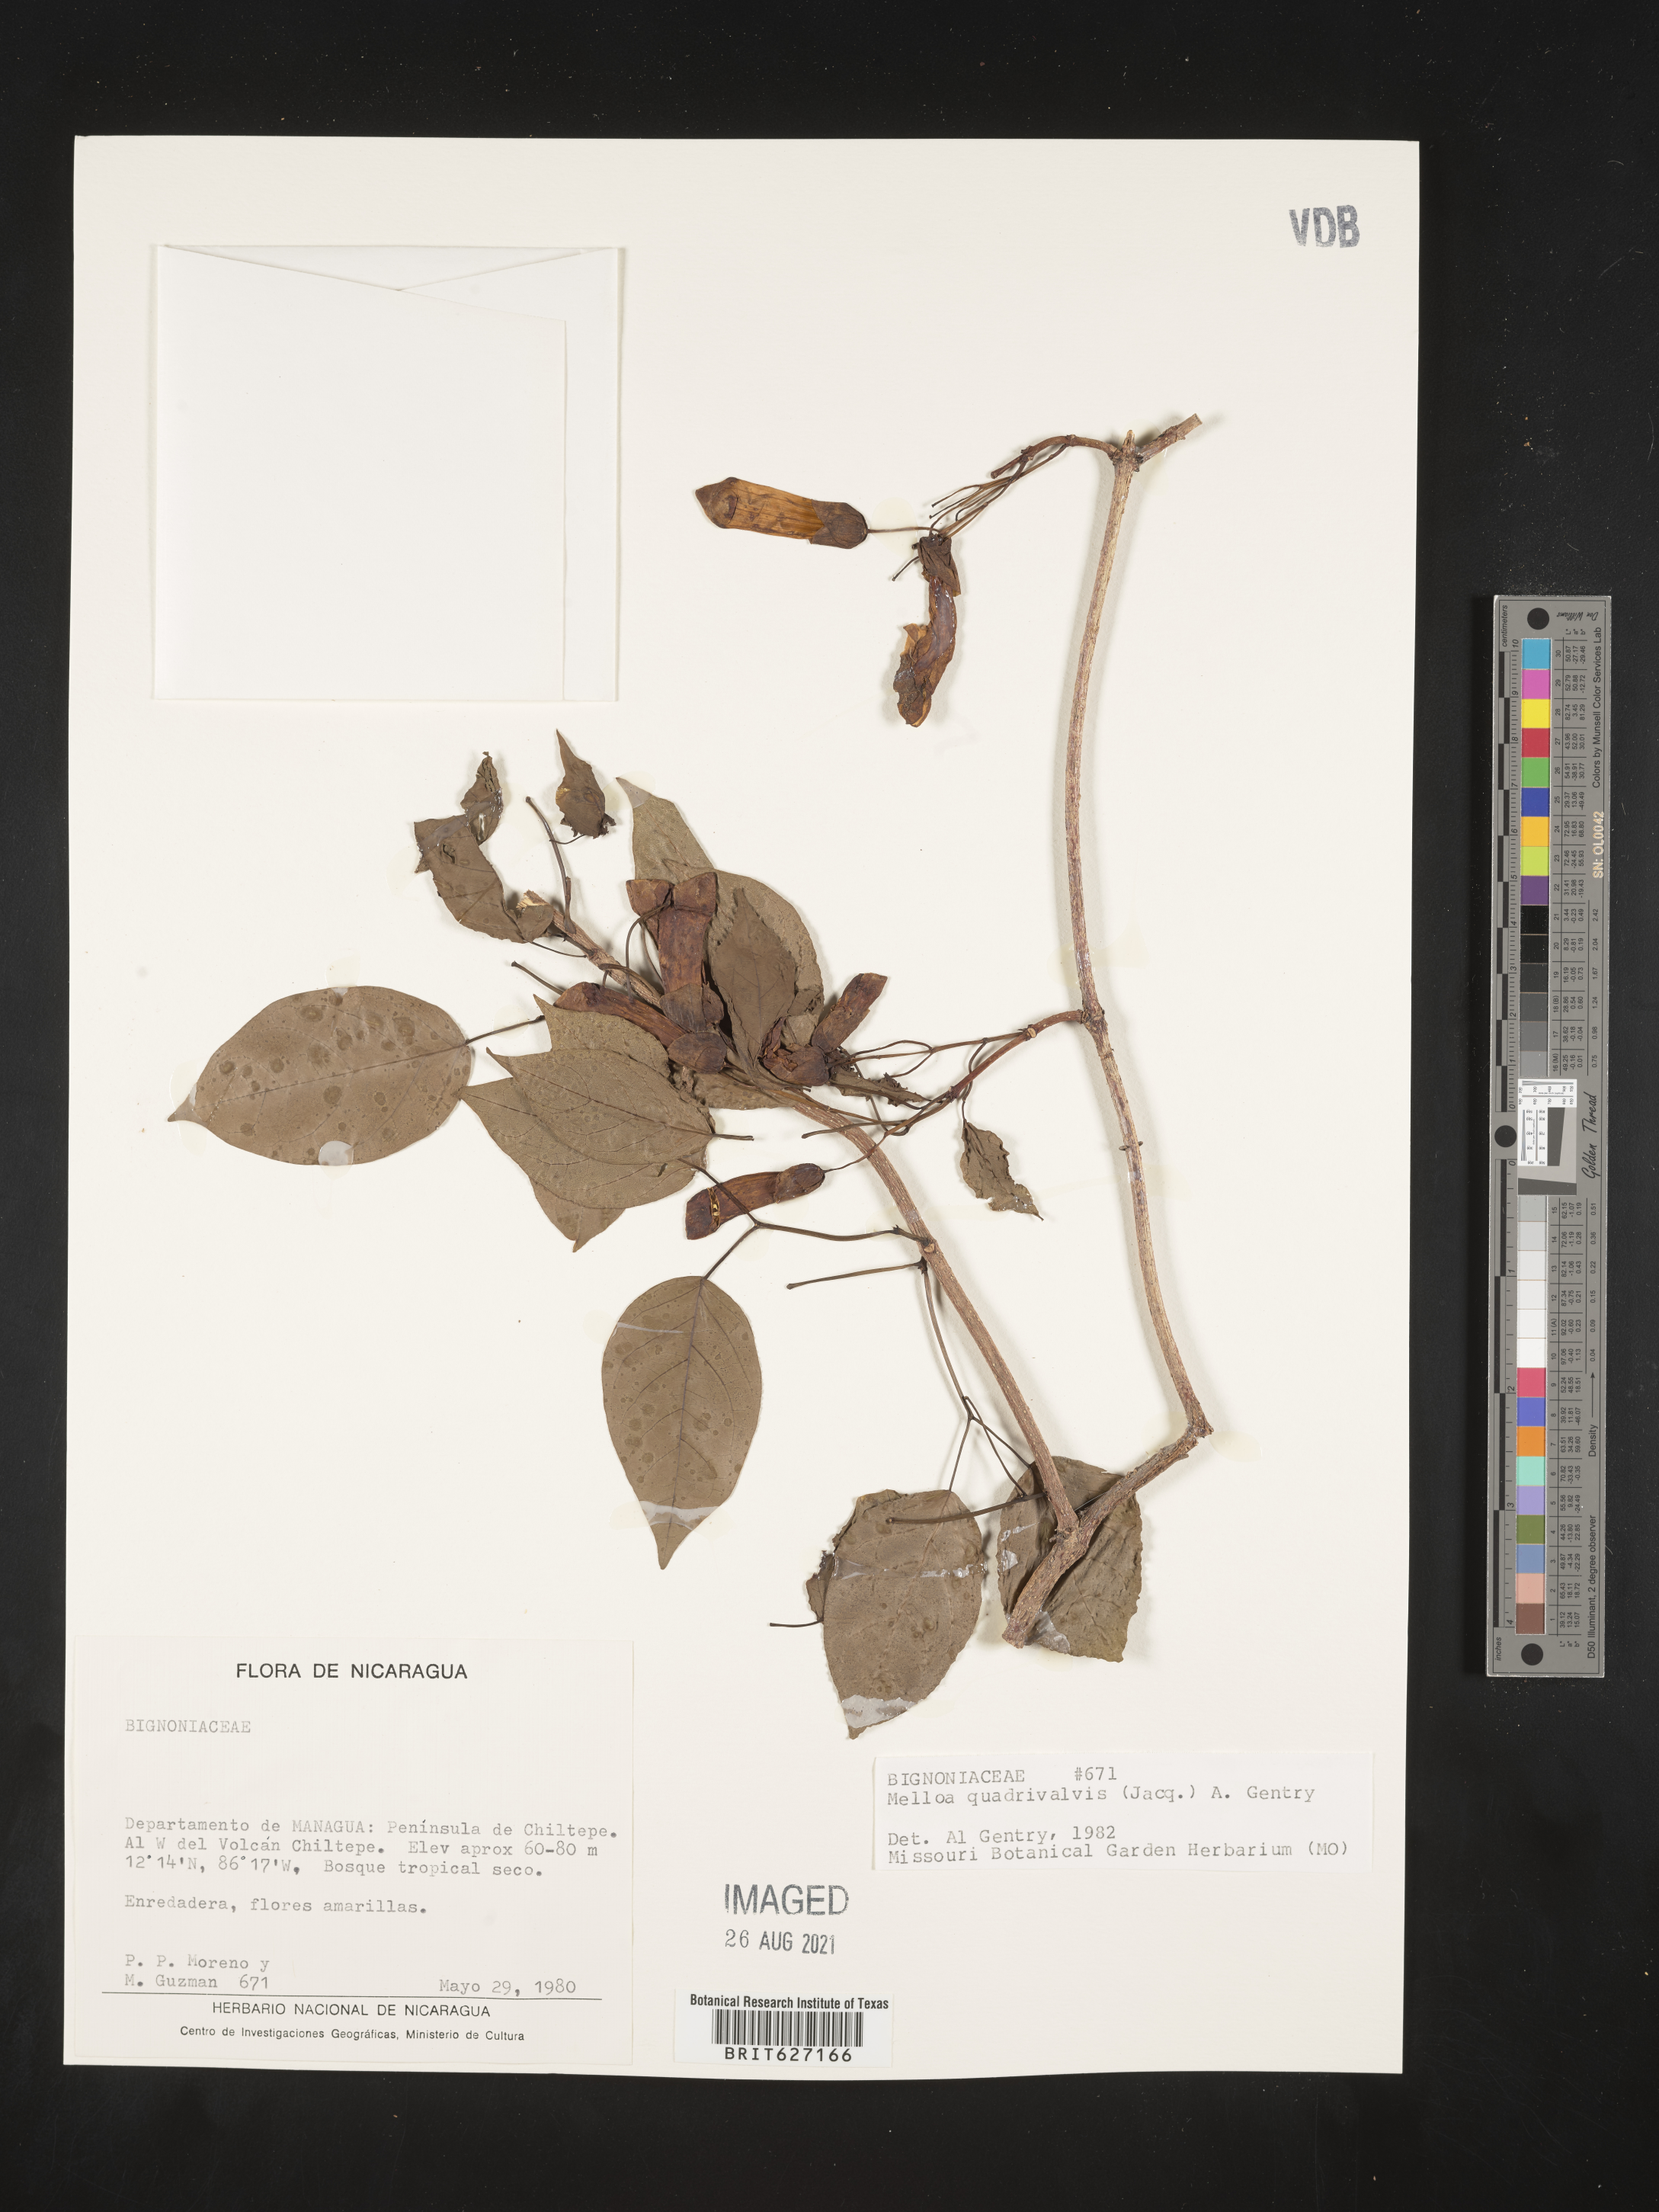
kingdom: Plantae
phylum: Tracheophyta
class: Magnoliopsida
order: Lamiales
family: Bignoniaceae
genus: Dolichandra
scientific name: Dolichandra quadrivalvis
